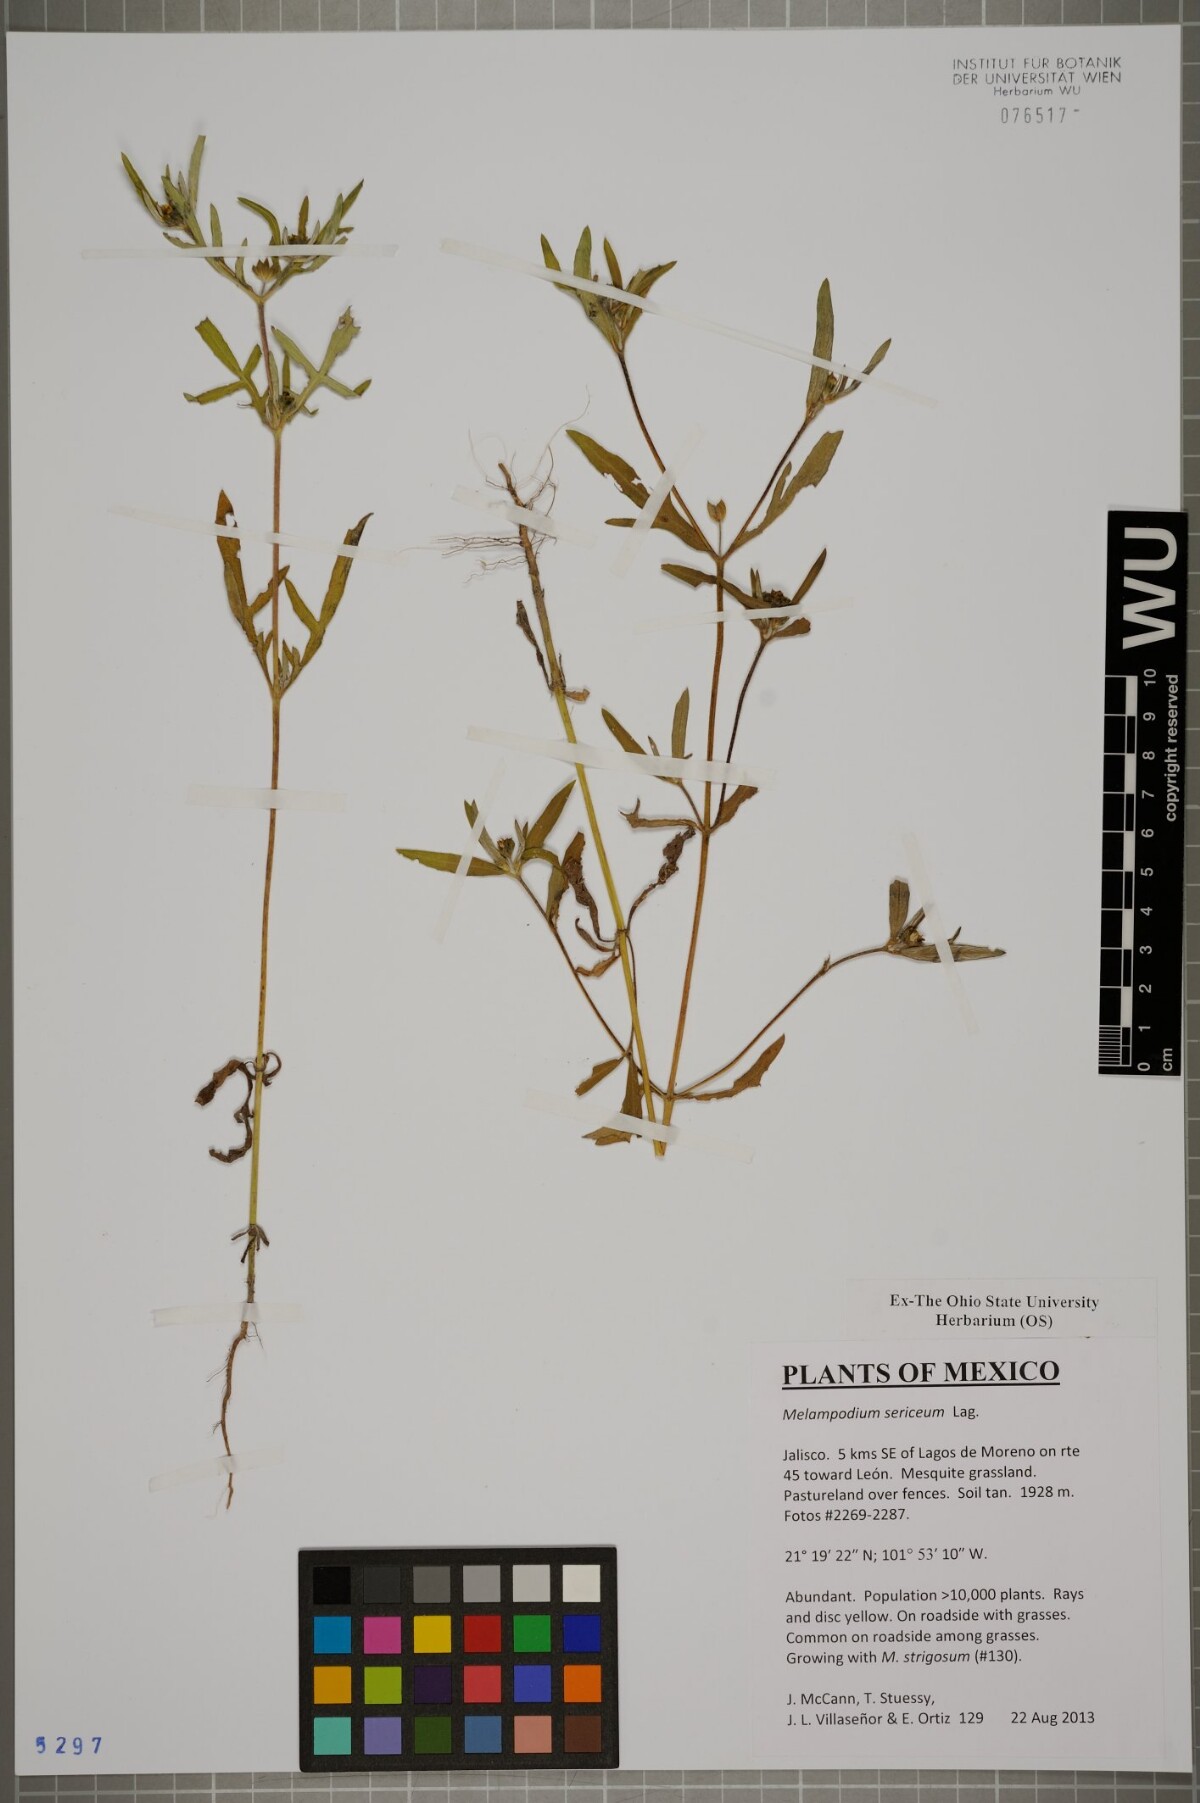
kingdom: Plantae
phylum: Tracheophyta
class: Magnoliopsida
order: Asterales
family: Asteraceae
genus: Melampodium
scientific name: Melampodium sericeum
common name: Rough blackfoot
